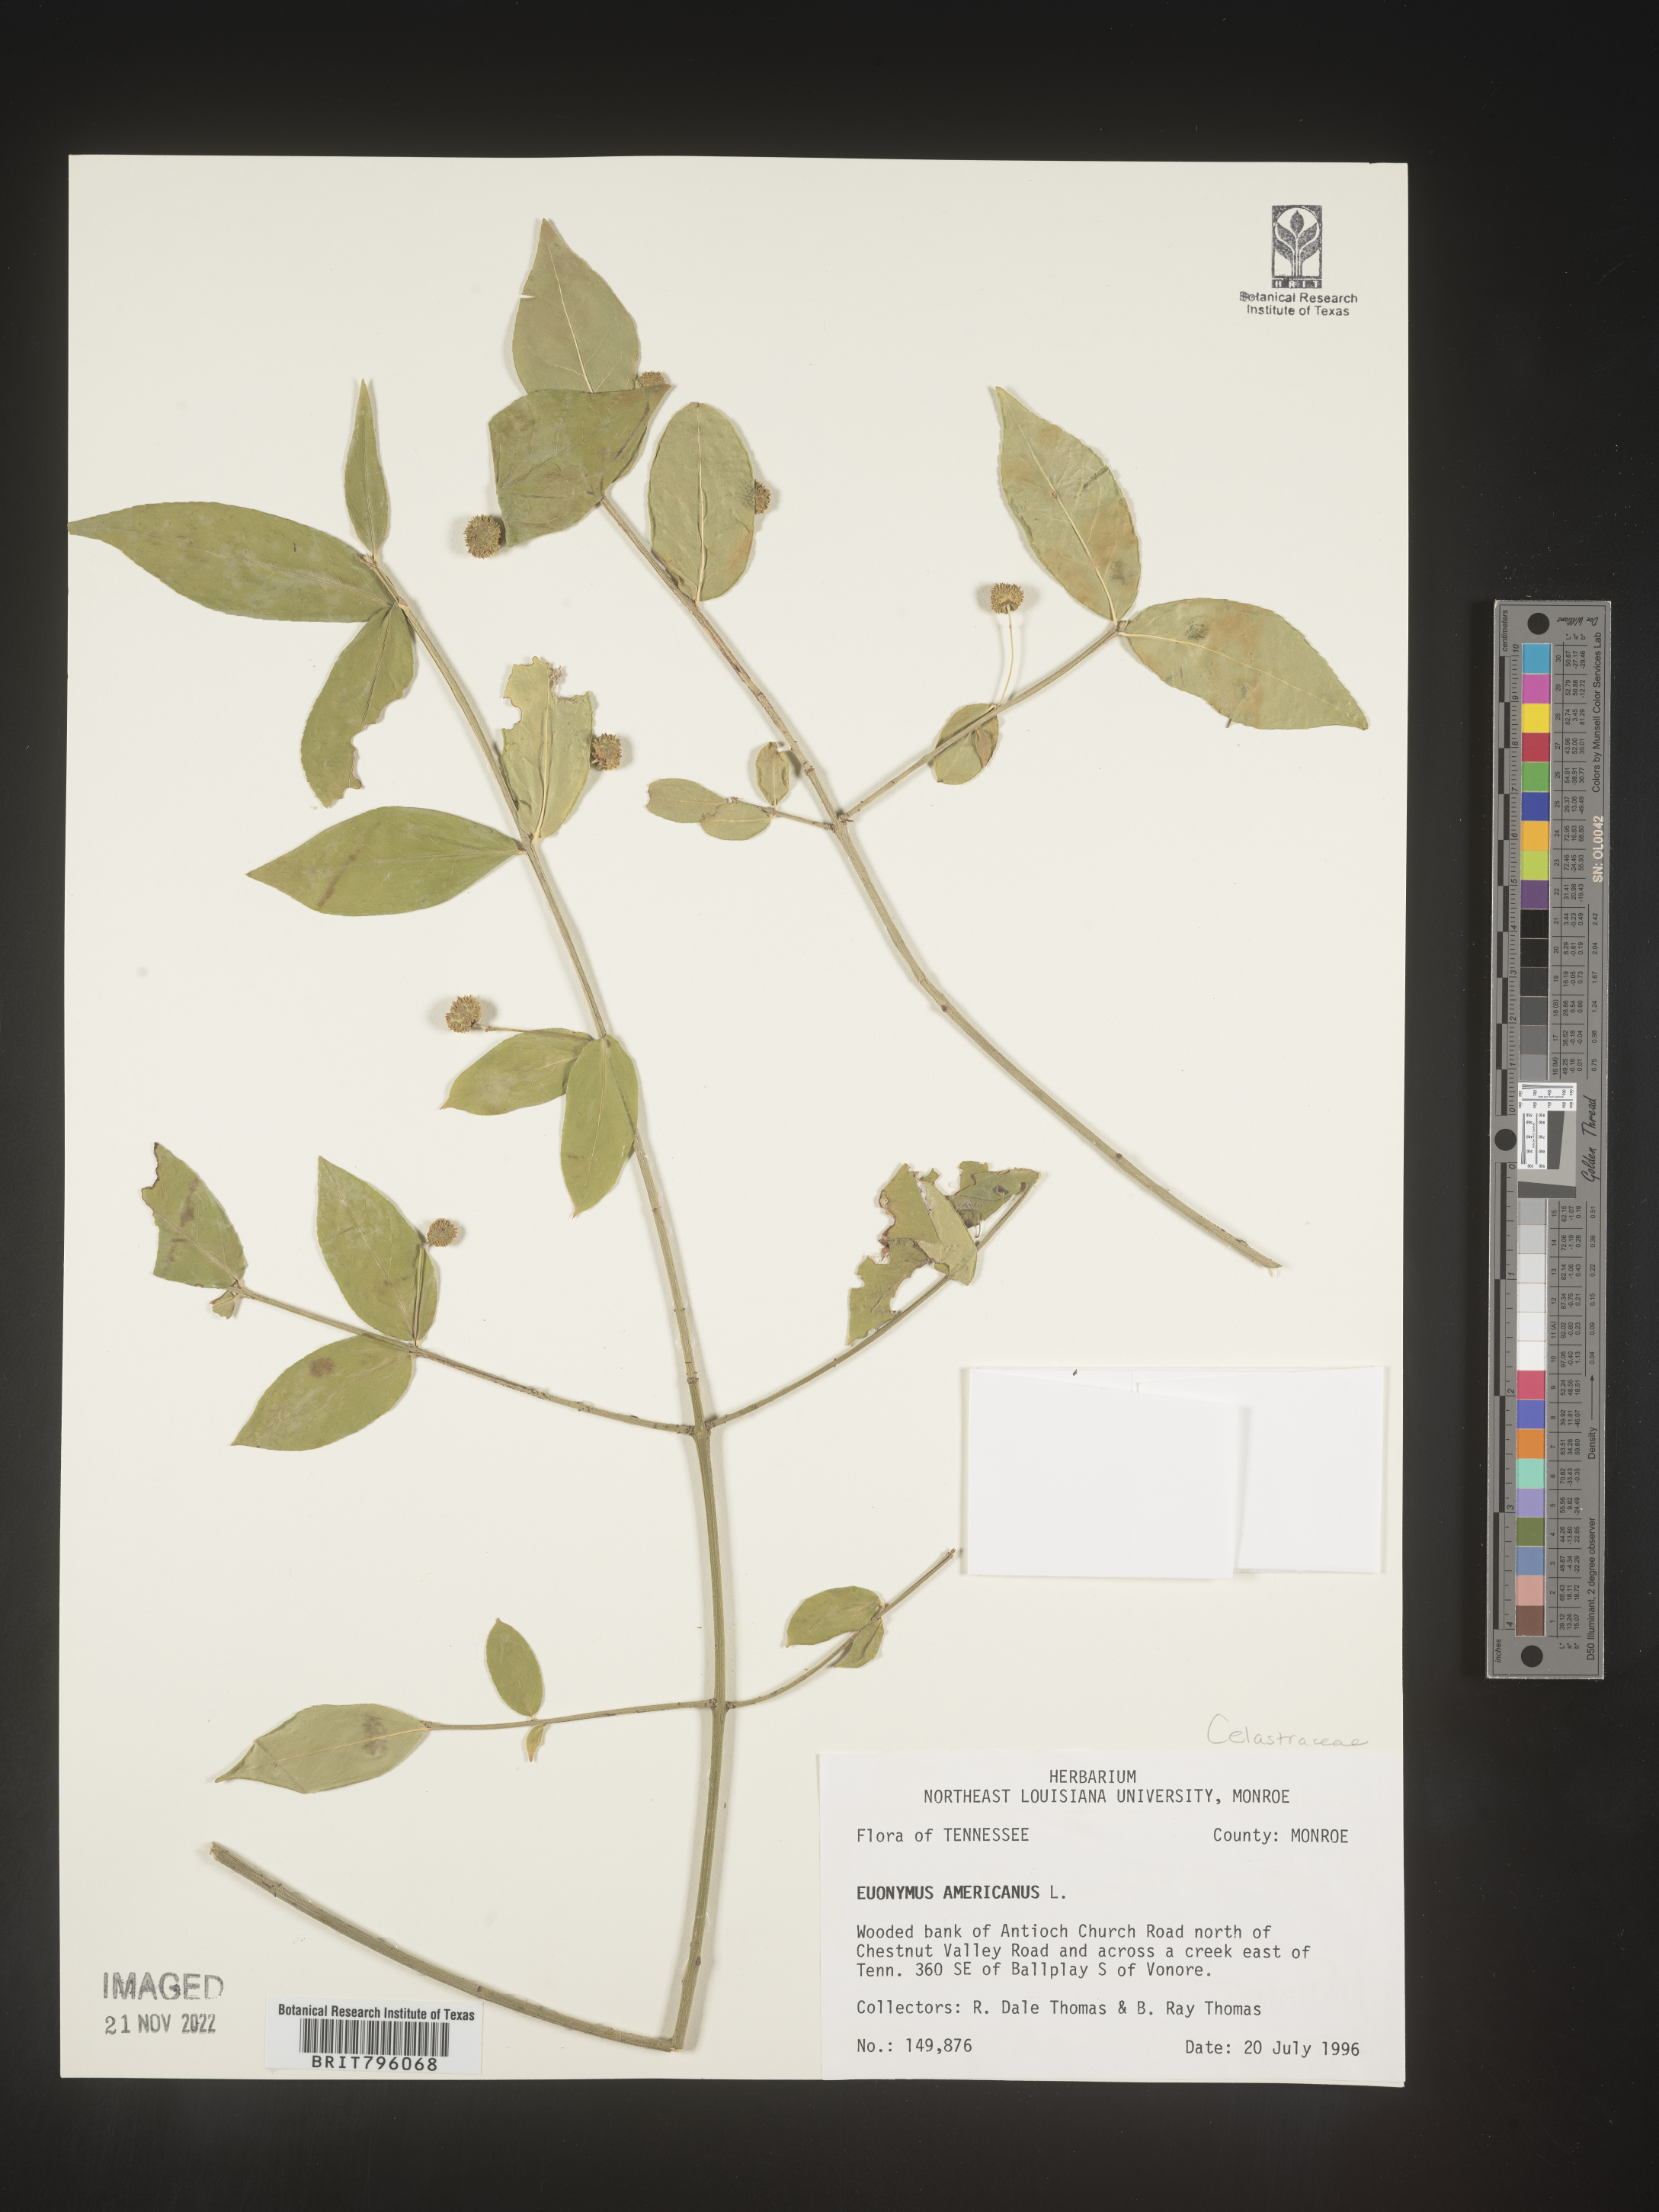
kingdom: Plantae
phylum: Tracheophyta
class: Magnoliopsida
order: Celastrales
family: Celastraceae
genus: Euonymus
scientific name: Euonymus americanus
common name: Bursting-heart
